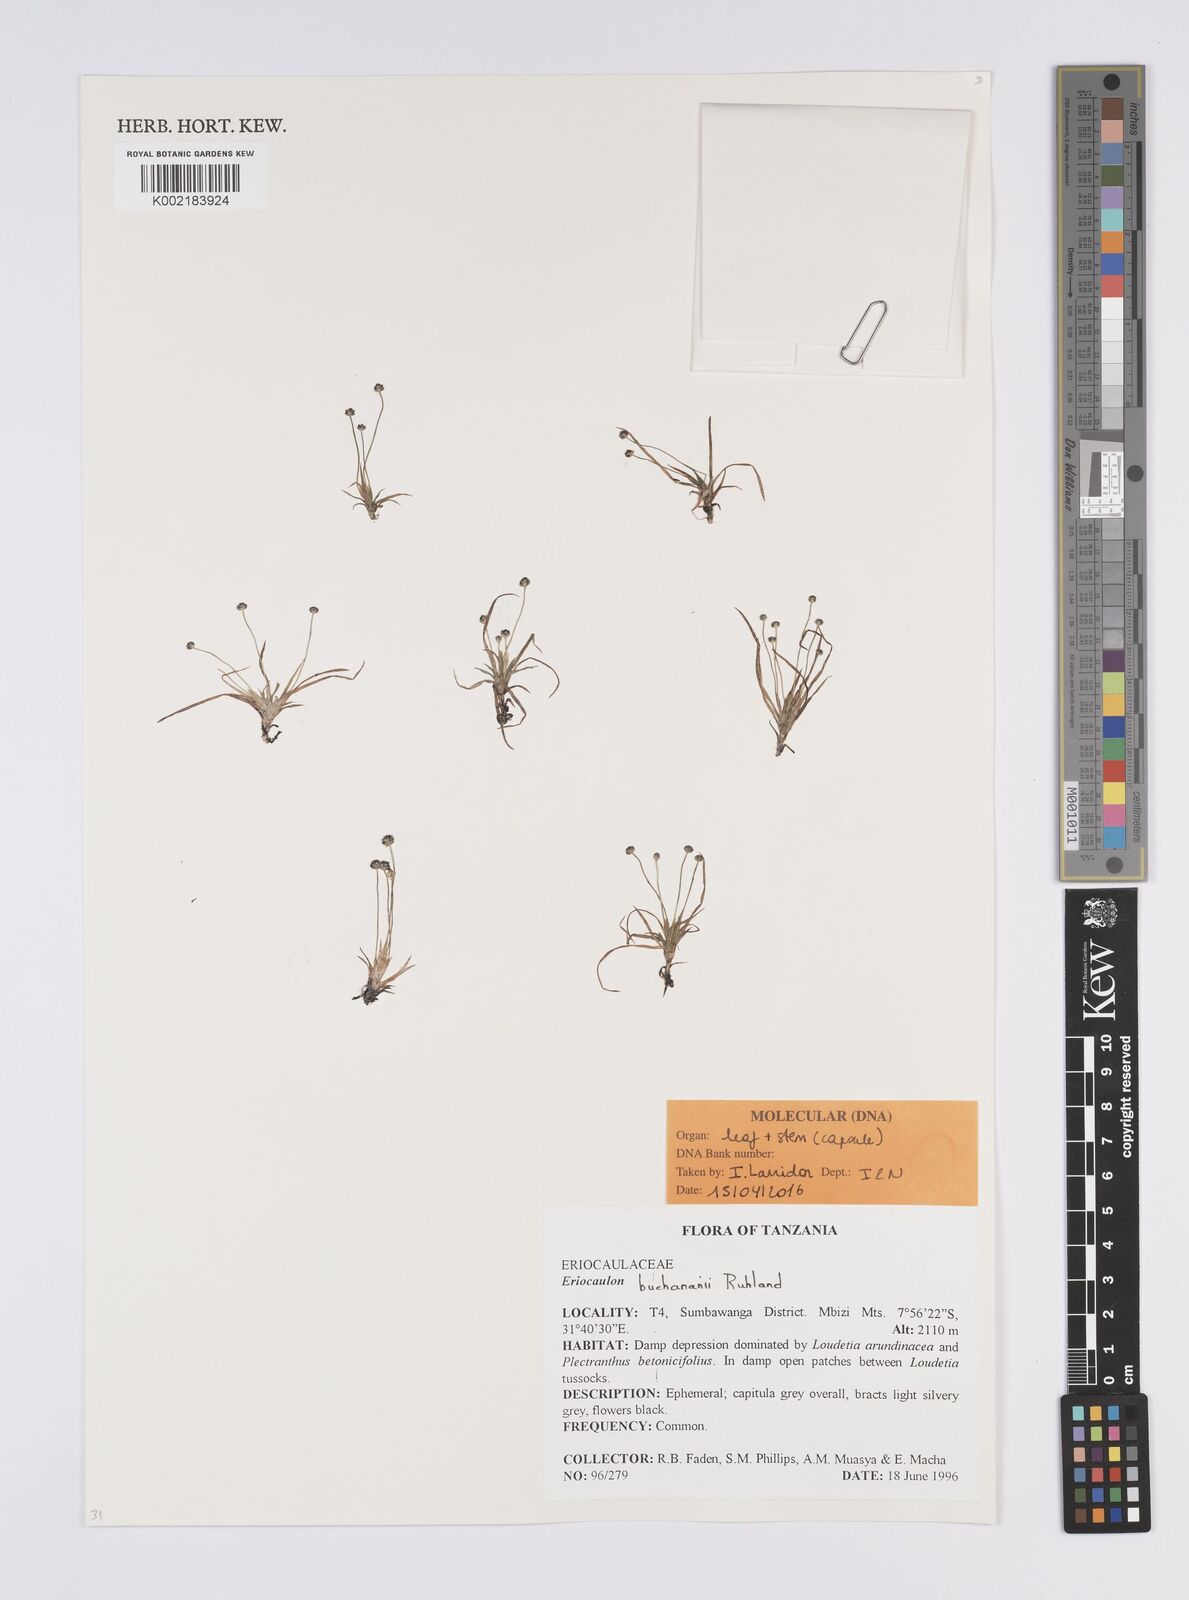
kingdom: Plantae
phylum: Tracheophyta
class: Liliopsida
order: Poales
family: Eriocaulaceae
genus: Eriocaulon
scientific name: Eriocaulon buchananii
